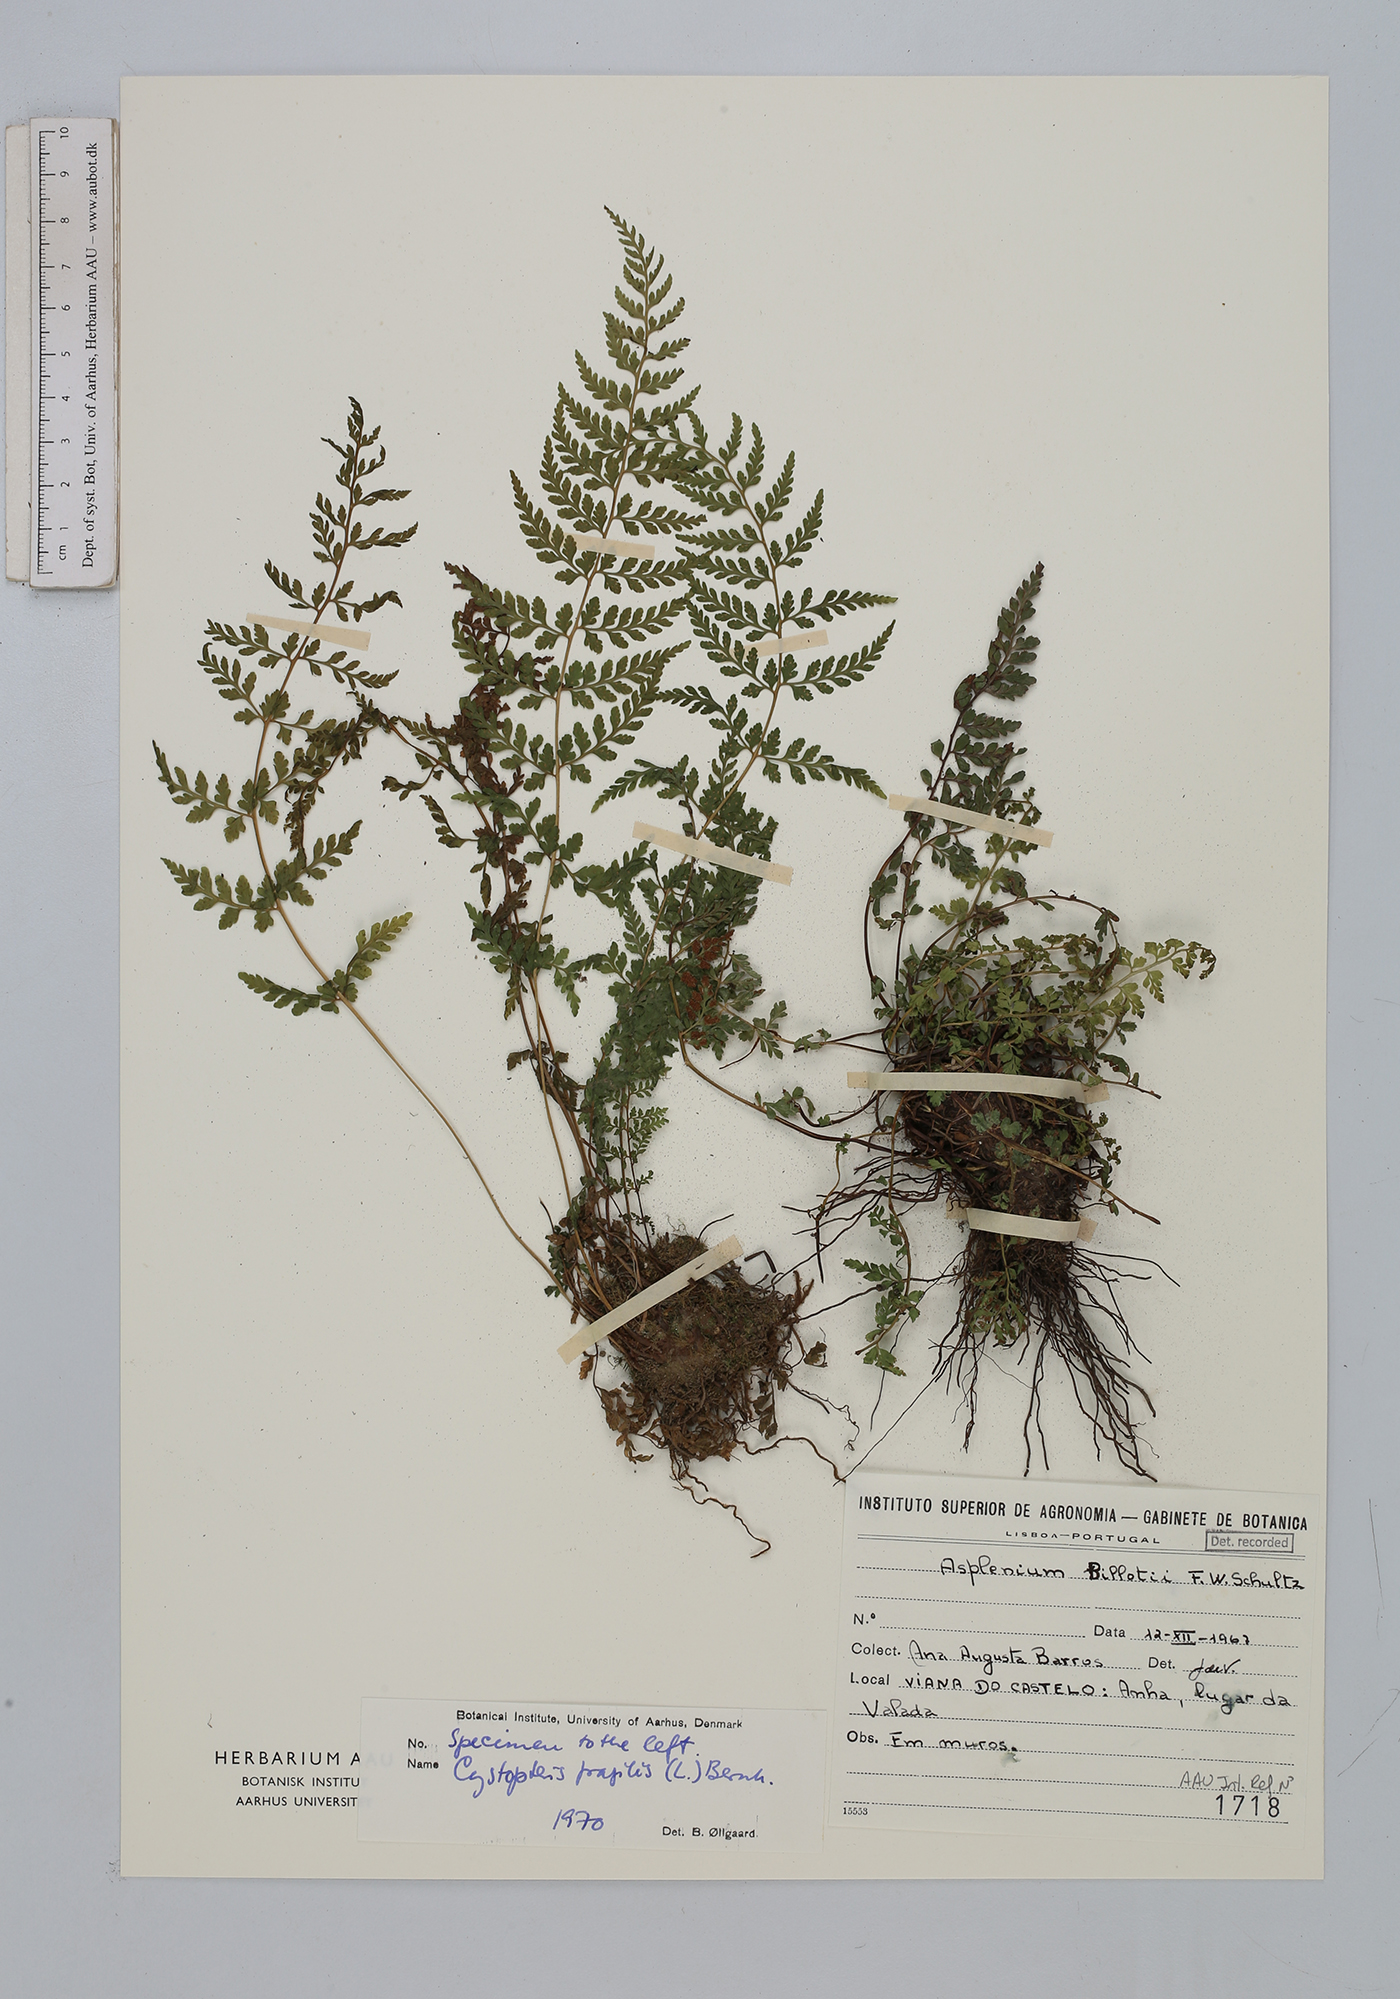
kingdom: Plantae
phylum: Tracheophyta
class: Polypodiopsida
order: Polypodiales
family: Aspleniaceae
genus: Asplenium
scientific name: Asplenium obovatum
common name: Lanceolate spleenwort
